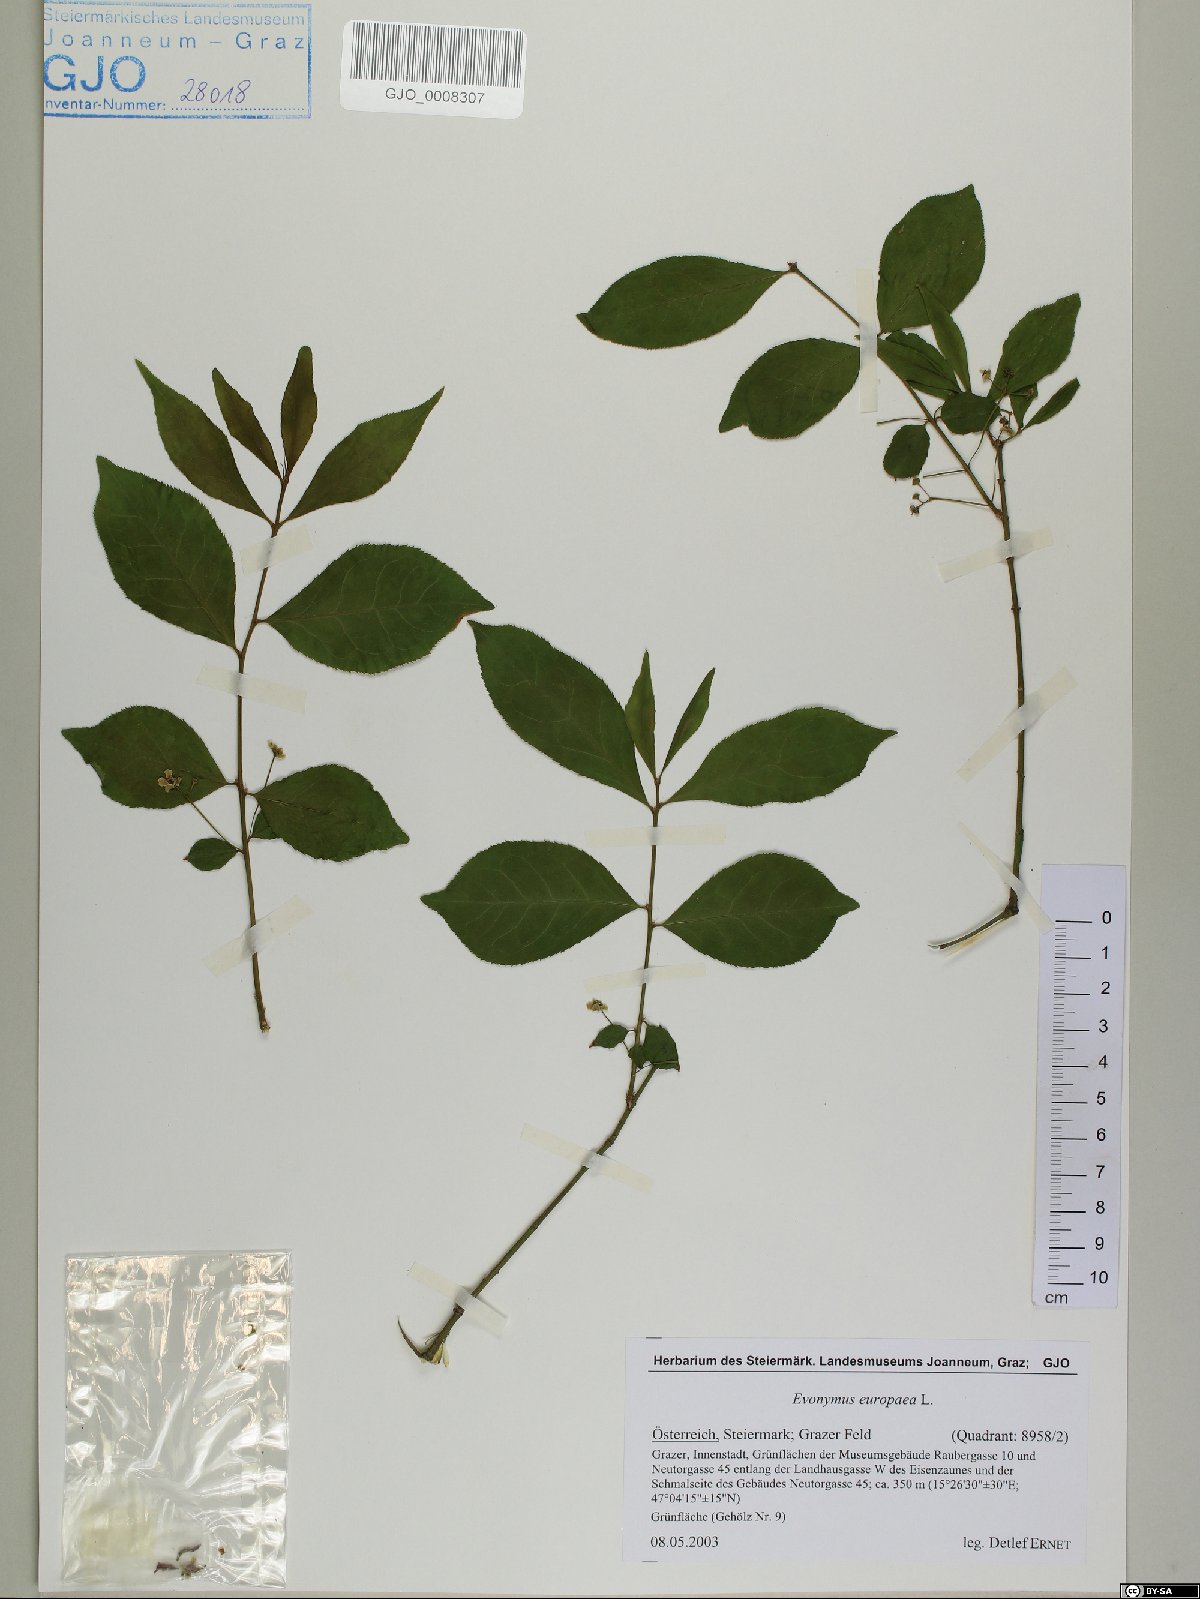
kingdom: Plantae
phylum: Tracheophyta
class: Magnoliopsida
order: Celastrales
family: Celastraceae
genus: Euonymus
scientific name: Euonymus europaeus
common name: Spindle
